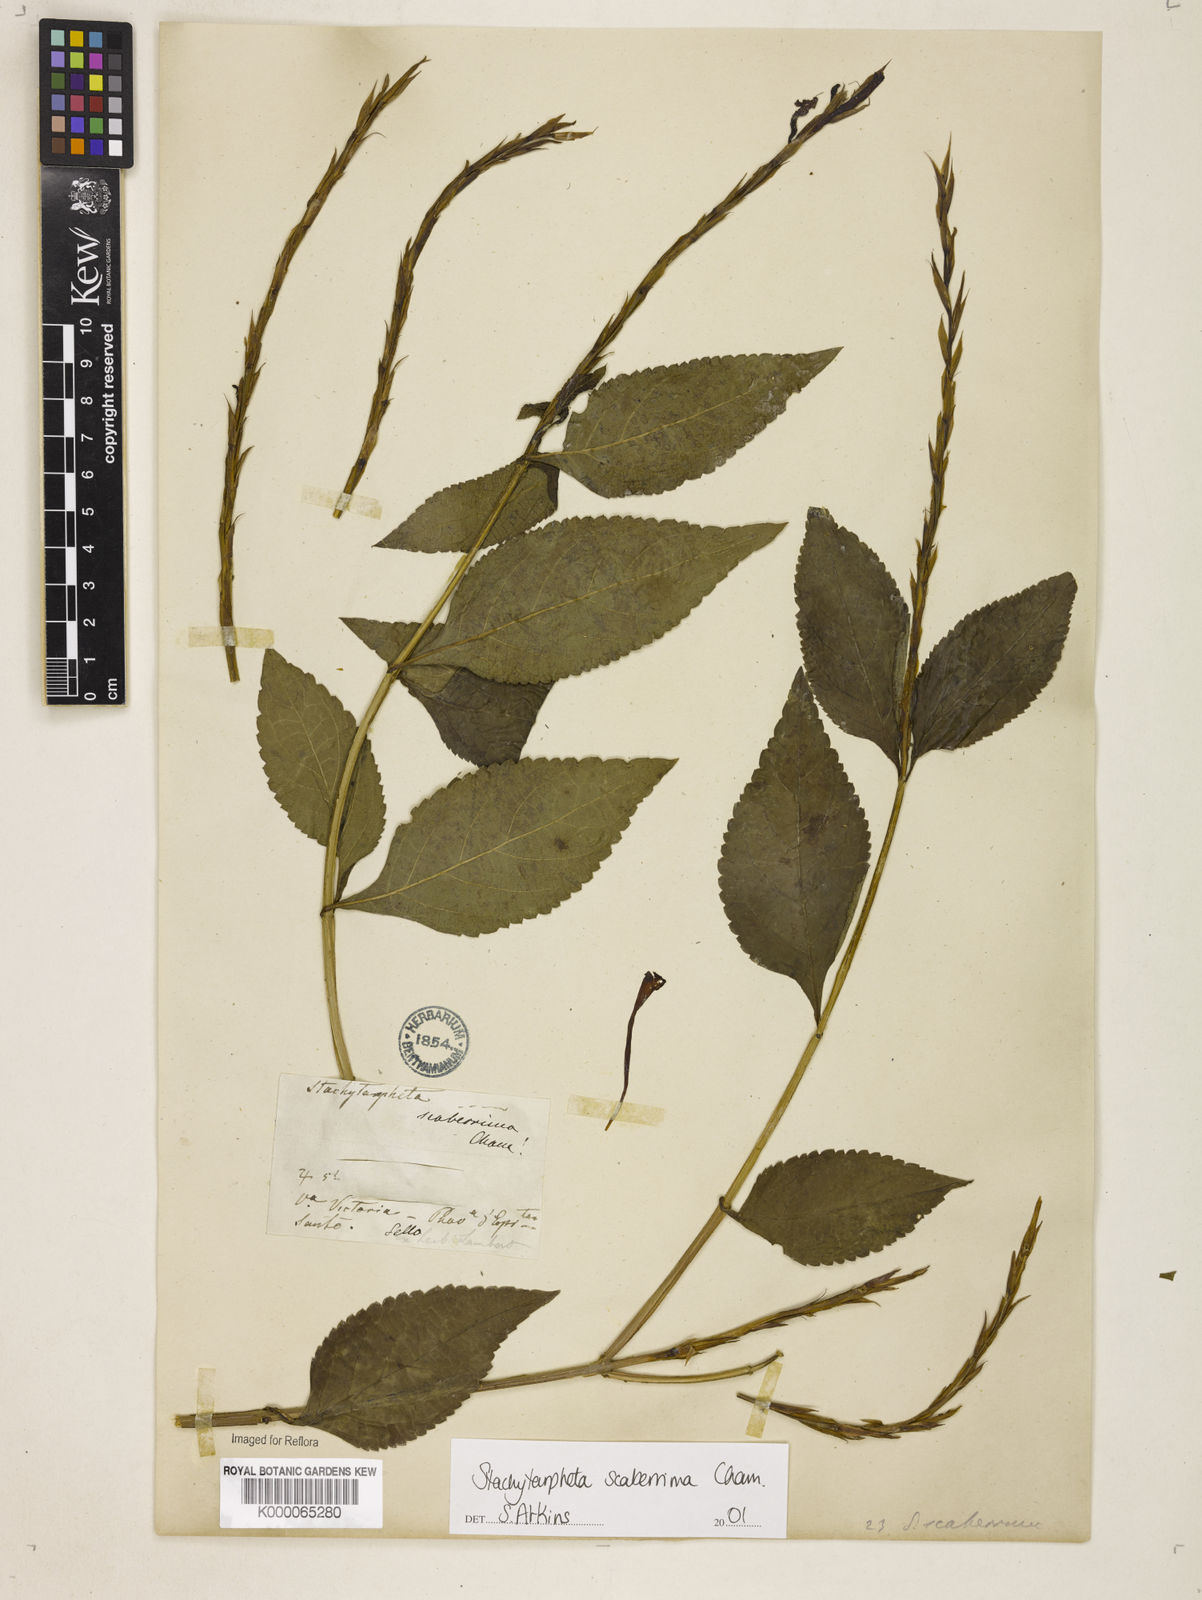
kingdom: Plantae
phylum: Tracheophyta
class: Magnoliopsida
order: Lamiales
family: Verbenaceae
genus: Stachytarpheta
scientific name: Stachytarpheta scaberrima
